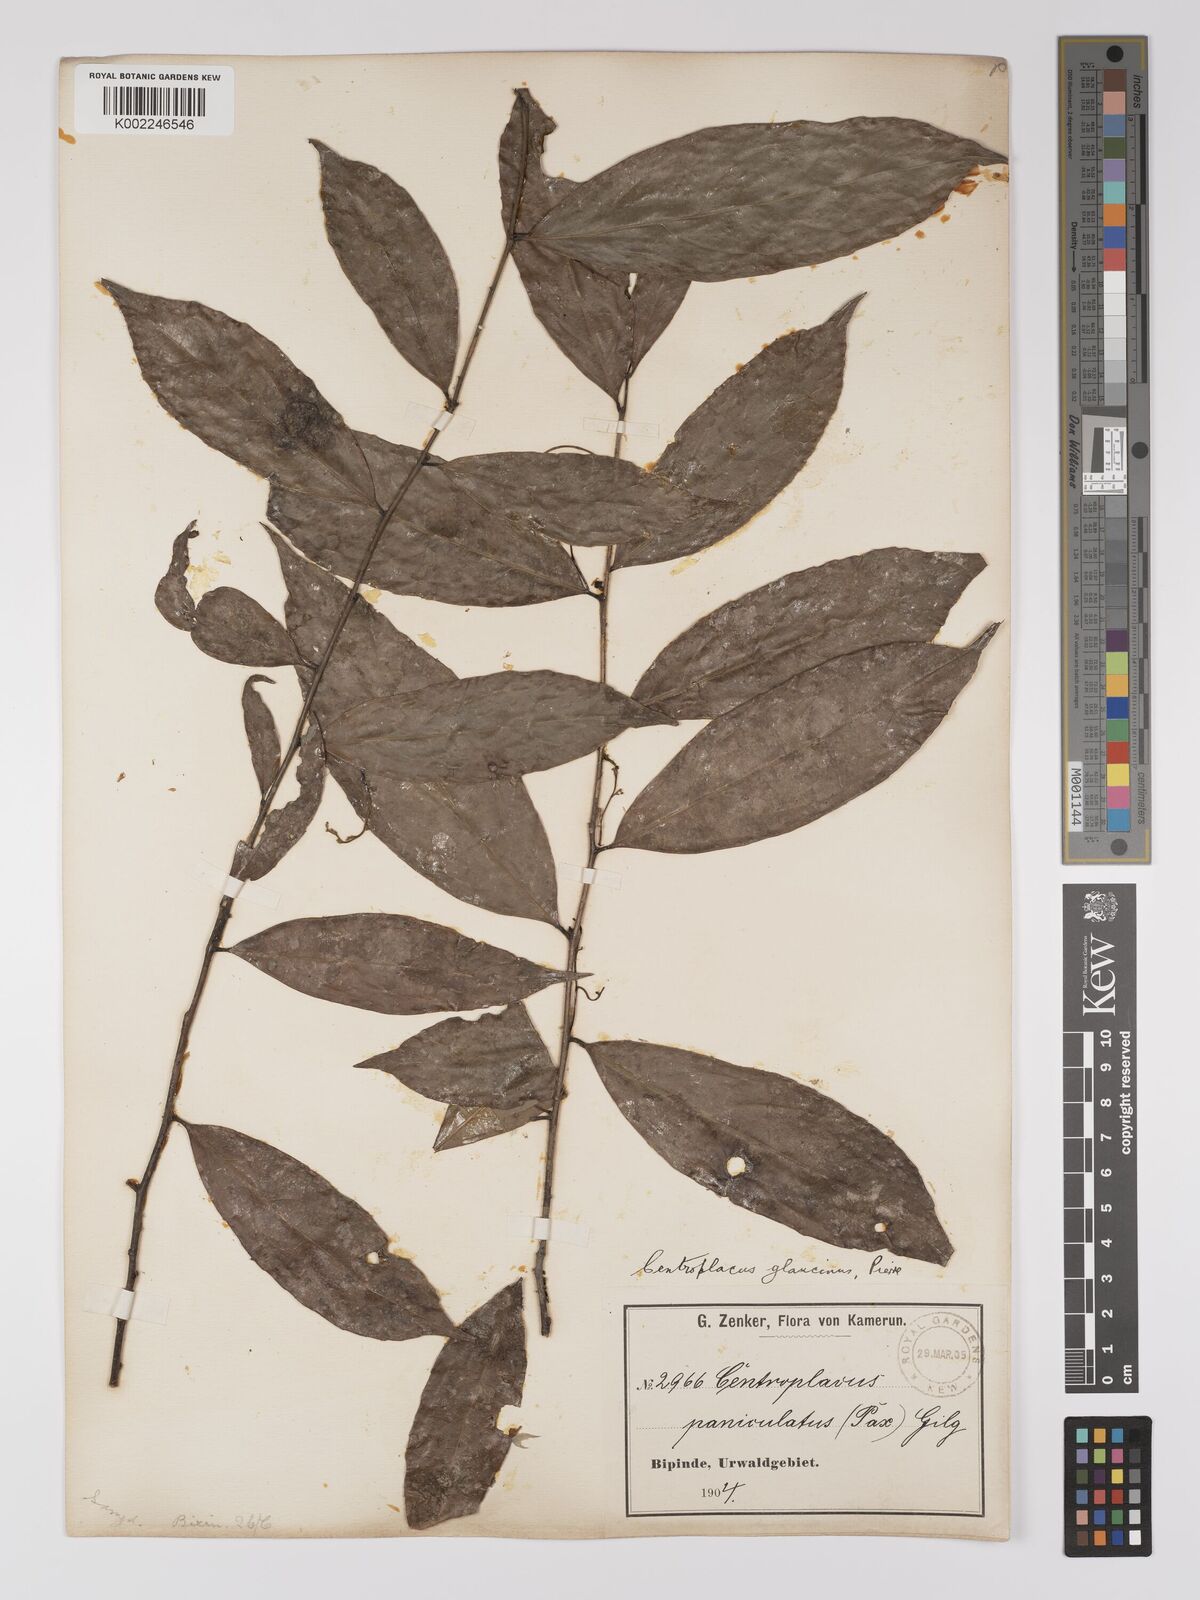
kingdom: Plantae
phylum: Tracheophyta
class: Magnoliopsida
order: Malpighiales
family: Centroplacaceae
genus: Centroplacus
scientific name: Centroplacus glaucinus
